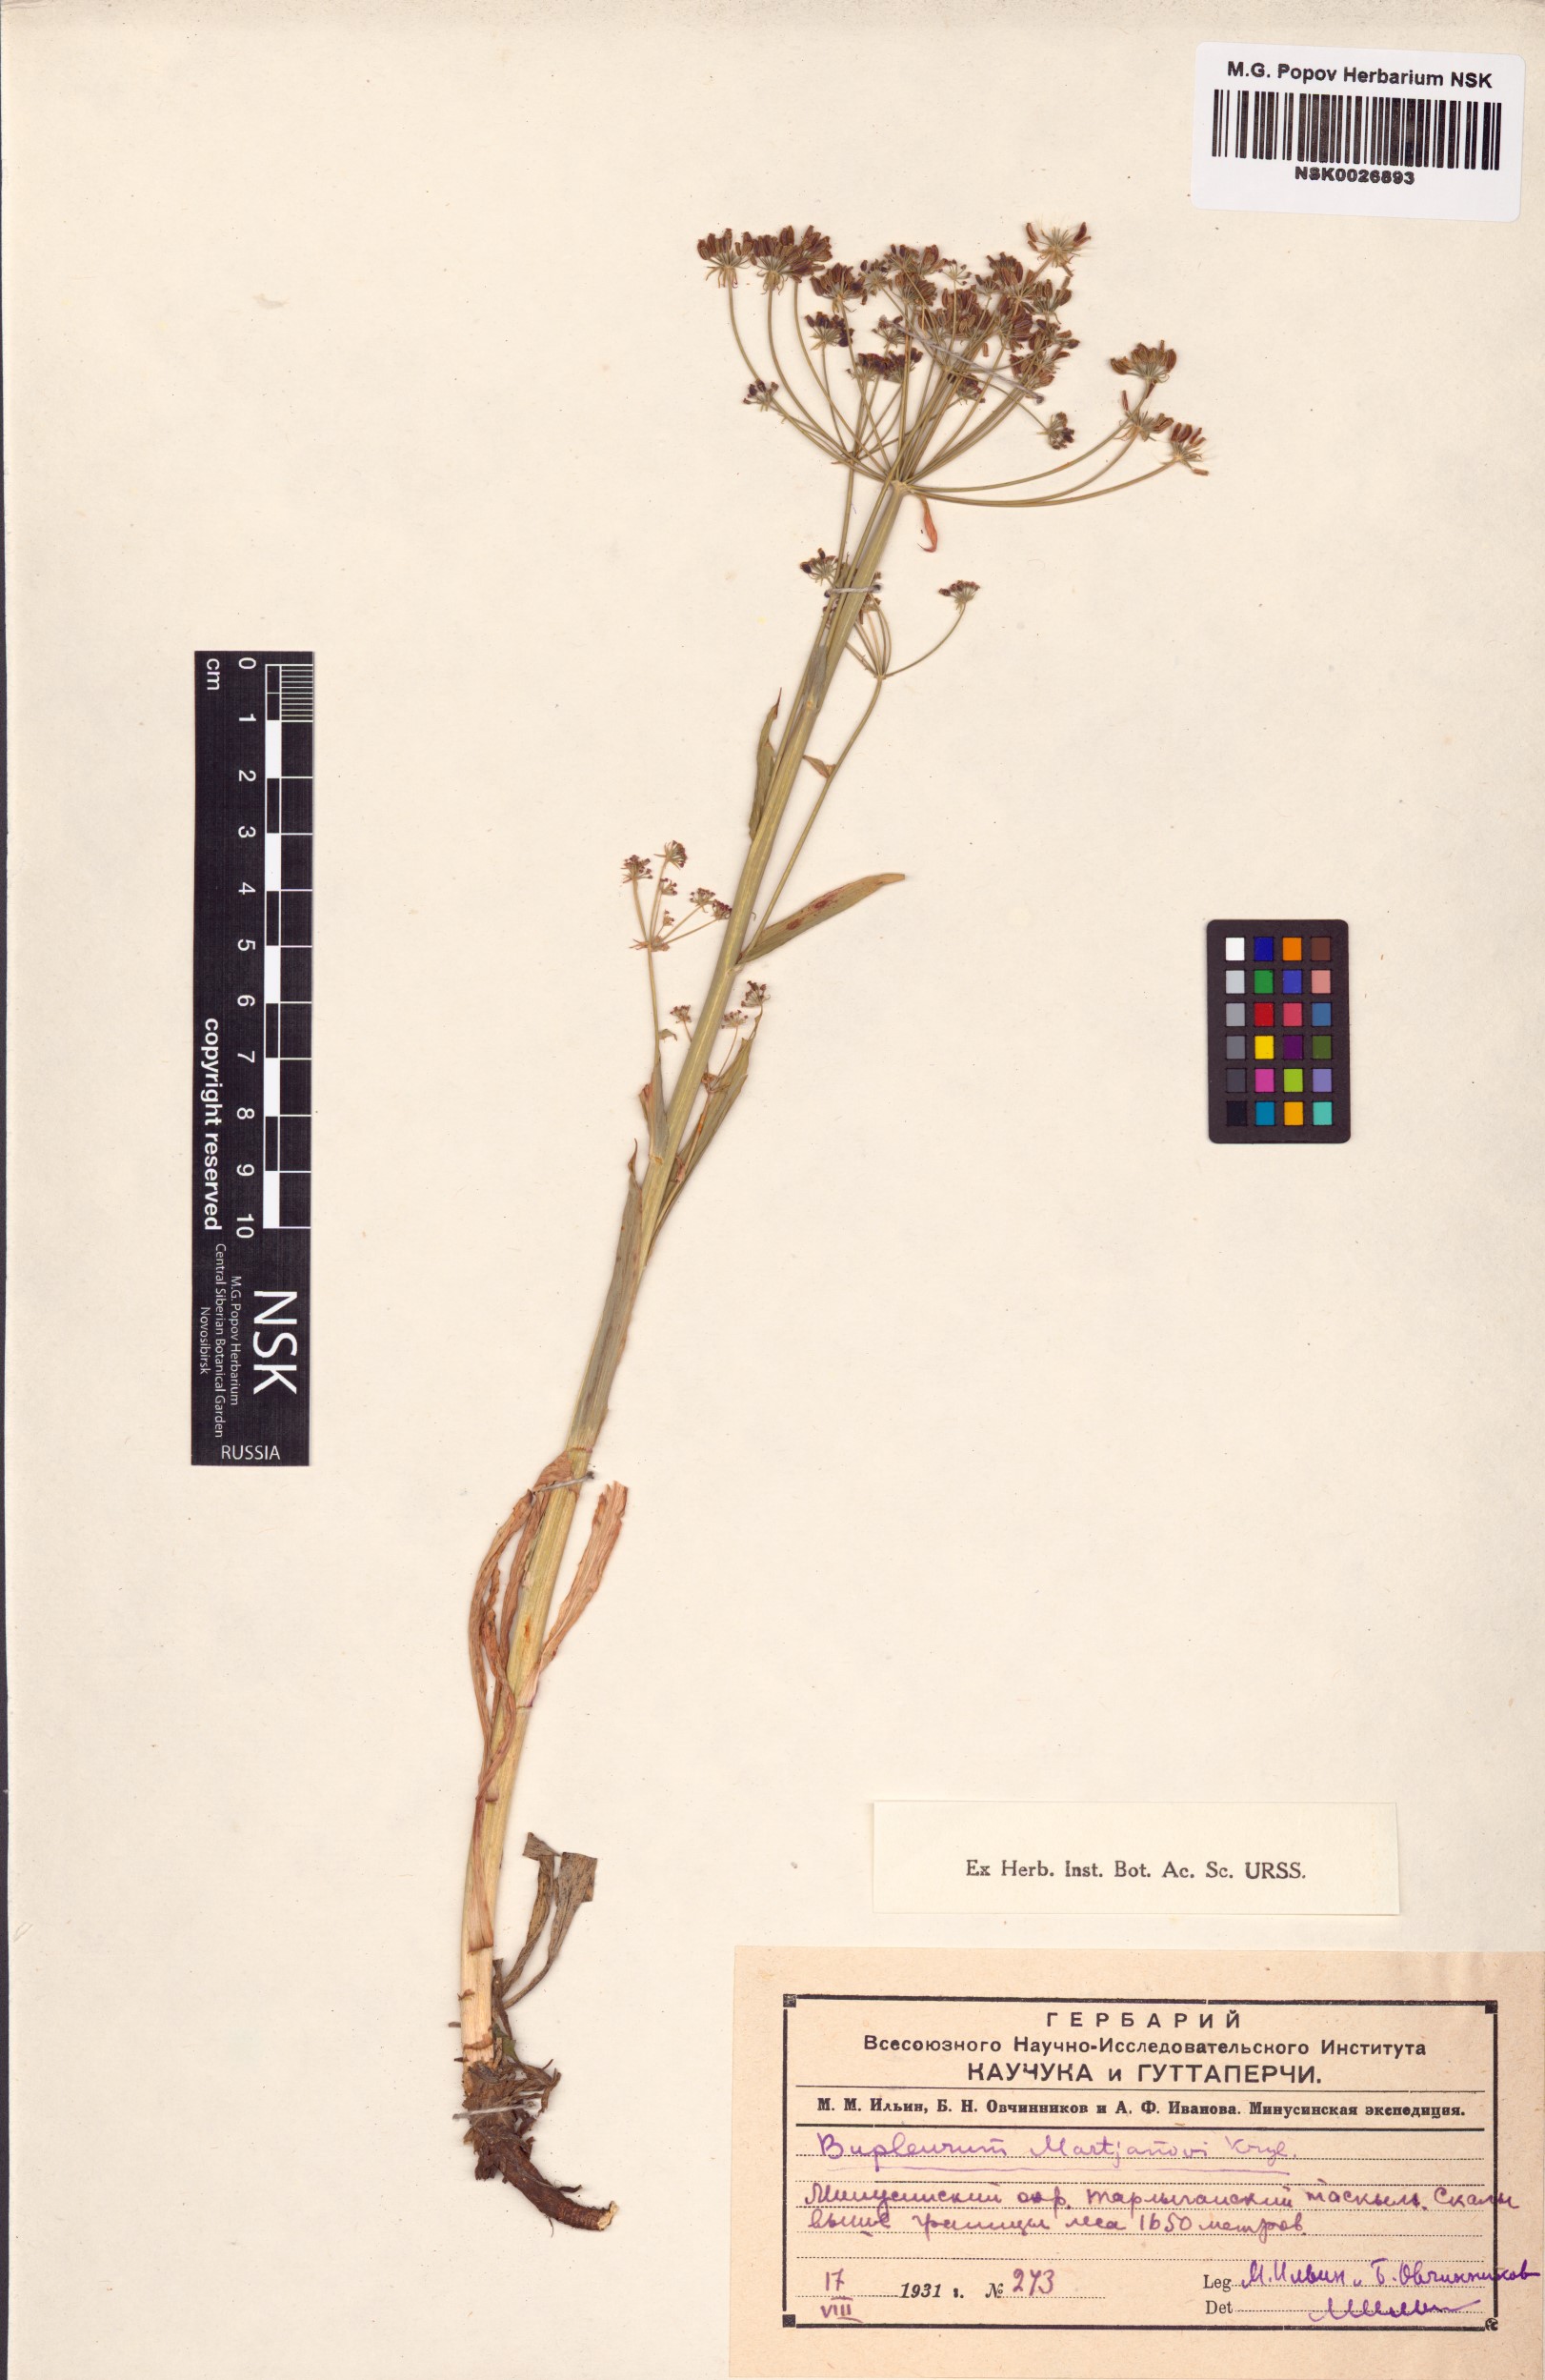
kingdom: Plantae
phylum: Tracheophyta
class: Magnoliopsida
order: Apiales
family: Apiaceae
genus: Bupleurum
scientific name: Bupleurum martjanovii
